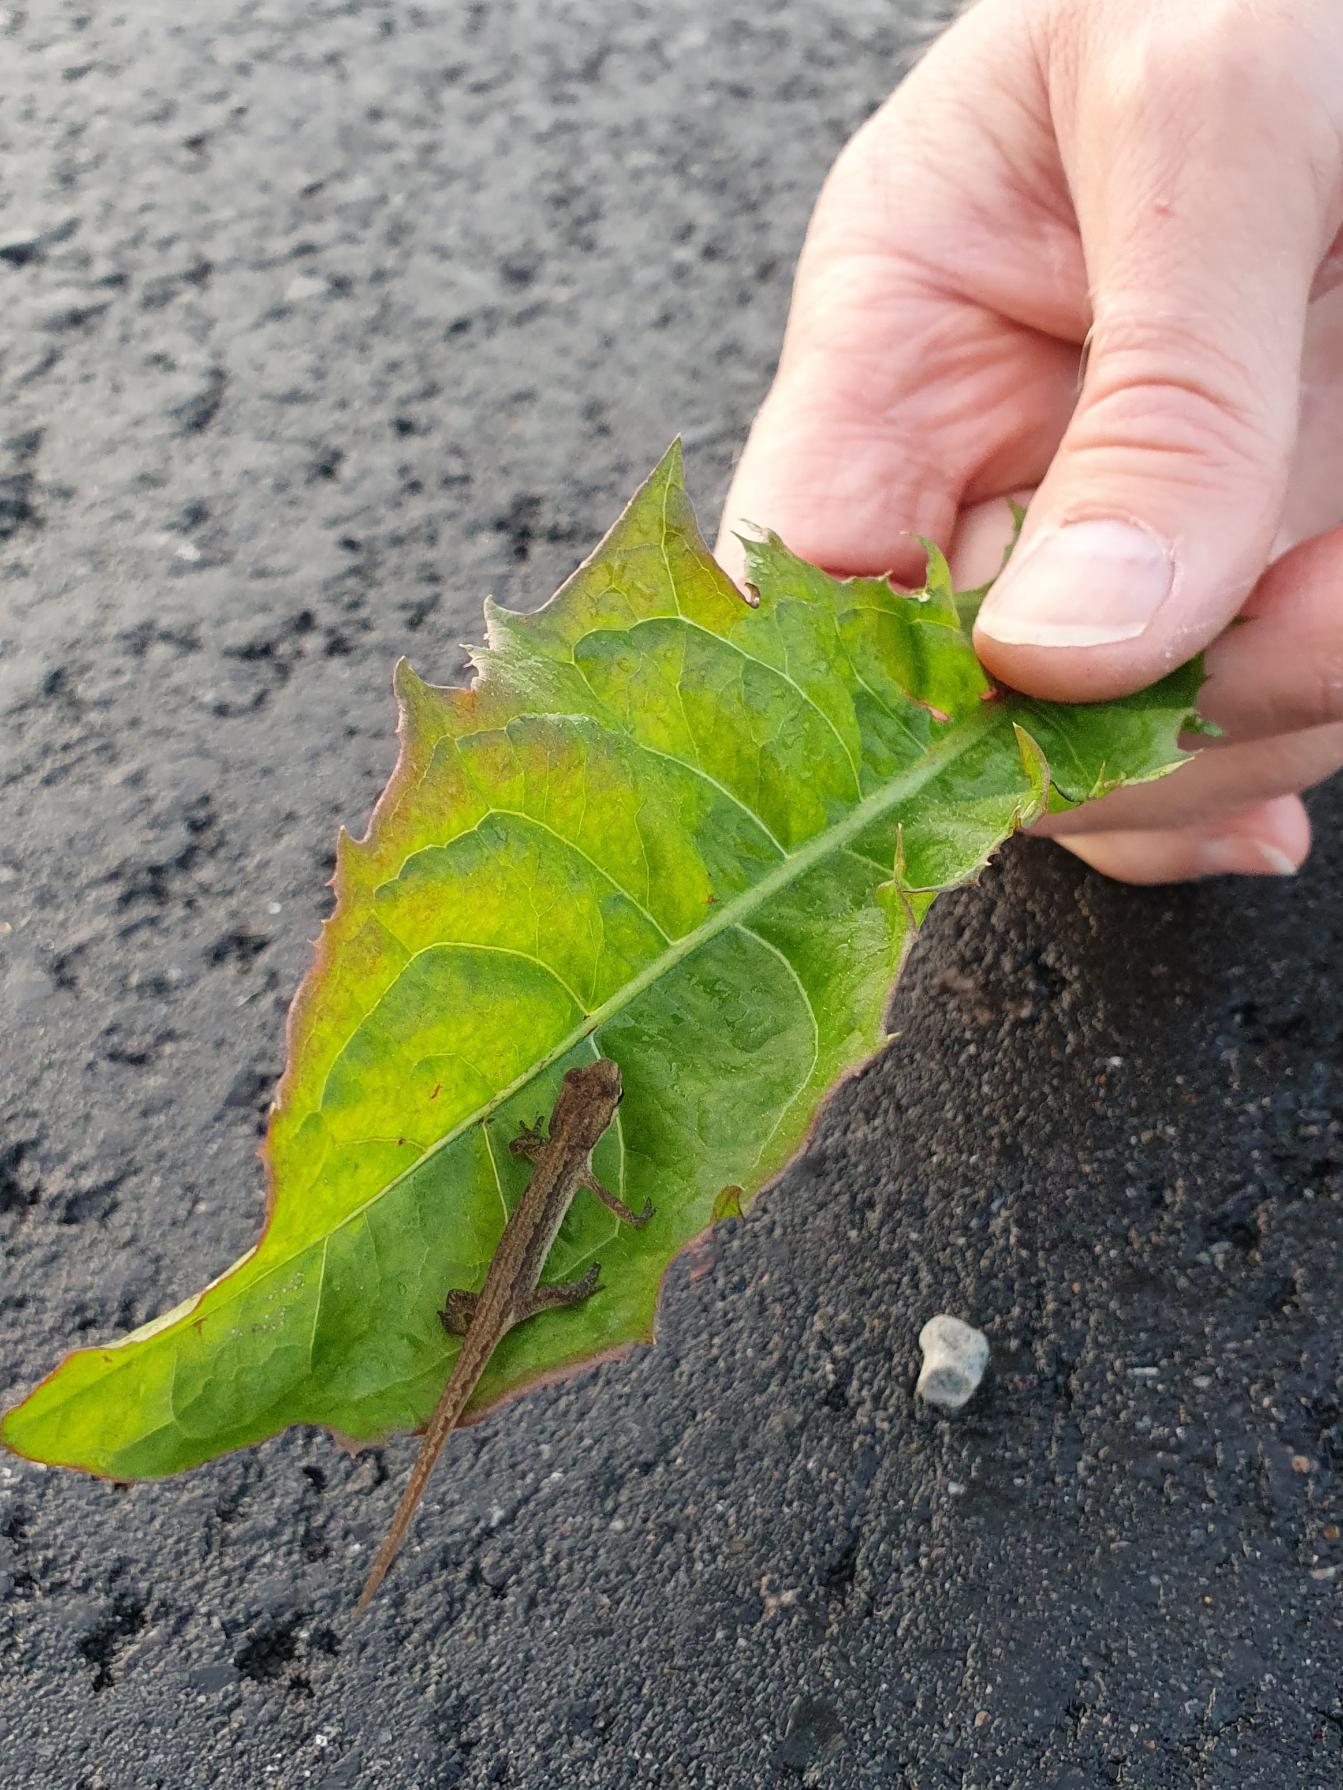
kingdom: Animalia
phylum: Chordata
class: Amphibia
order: Caudata
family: Salamandridae
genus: Lissotriton
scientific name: Lissotriton vulgaris
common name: Lille vandsalamander
